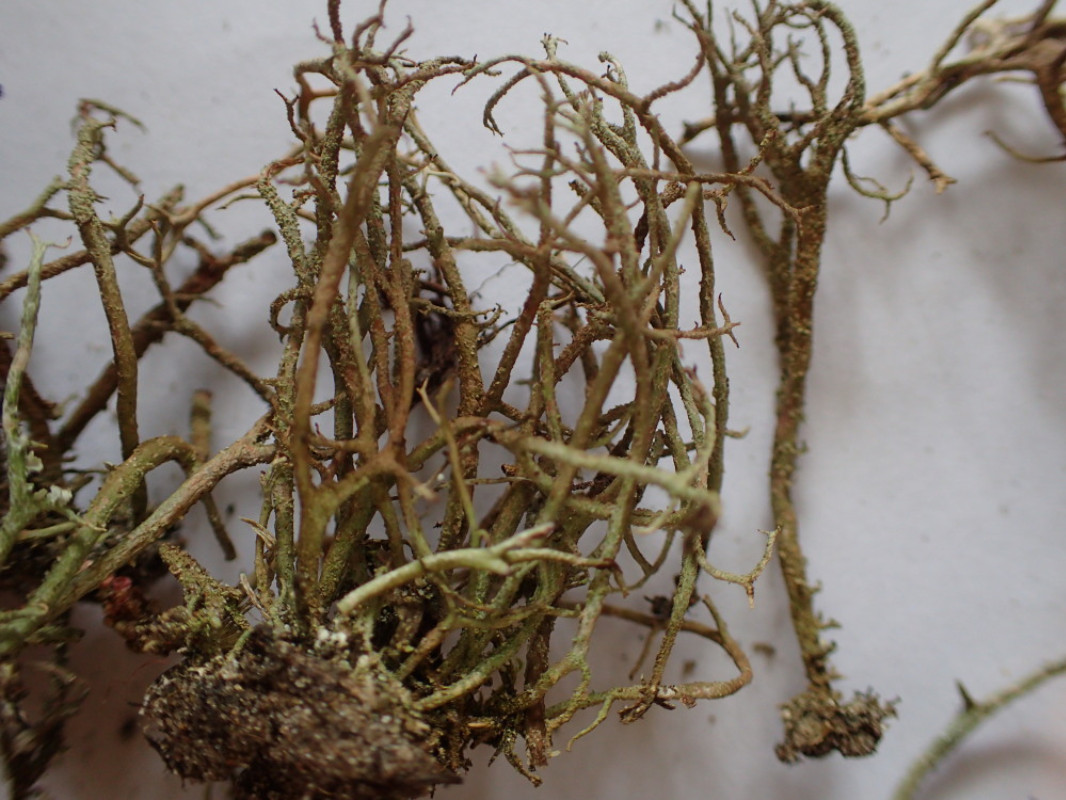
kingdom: Fungi
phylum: Ascomycota
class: Lecanoromycetes
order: Lecanorales
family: Cladoniaceae
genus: Cladonia
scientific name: Cladonia scabriuscula
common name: ru bægerlav
